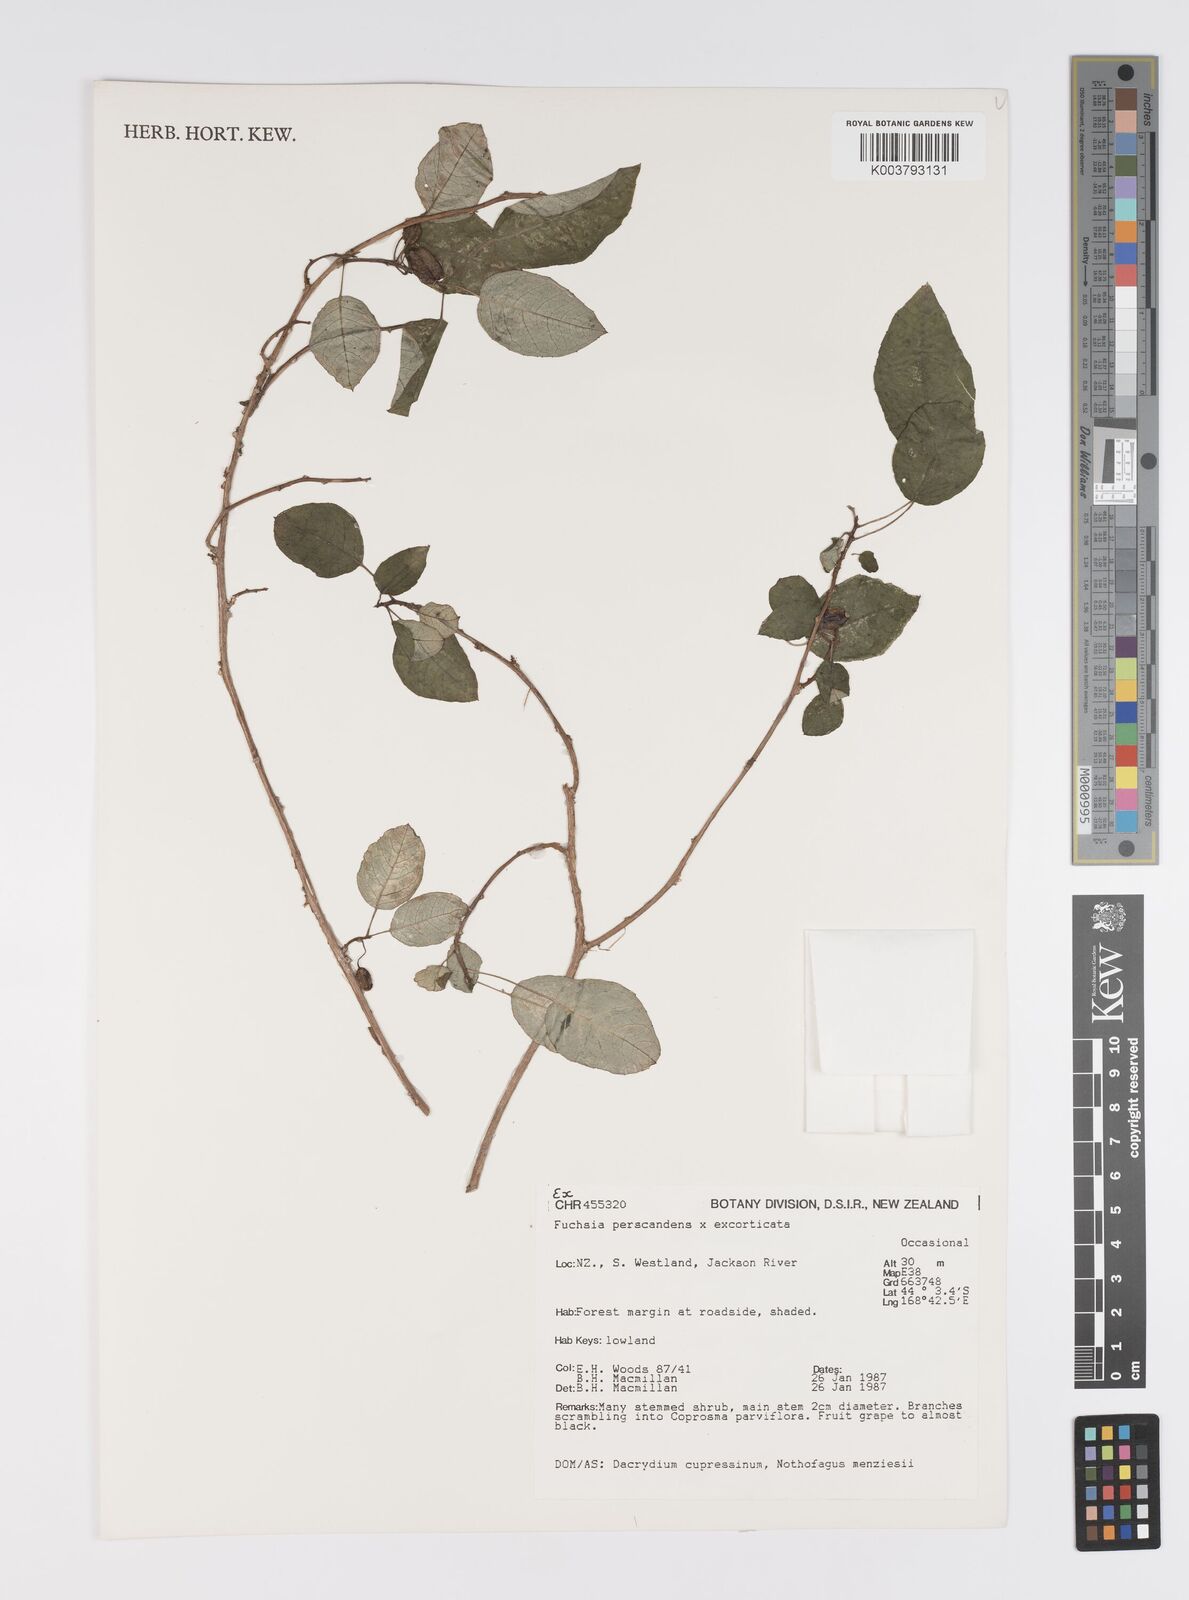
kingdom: Plantae
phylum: Tracheophyta
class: Magnoliopsida
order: Myrtales
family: Onagraceae
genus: Fuchsia
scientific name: Fuchsia excorticata
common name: Tree fuchsia
